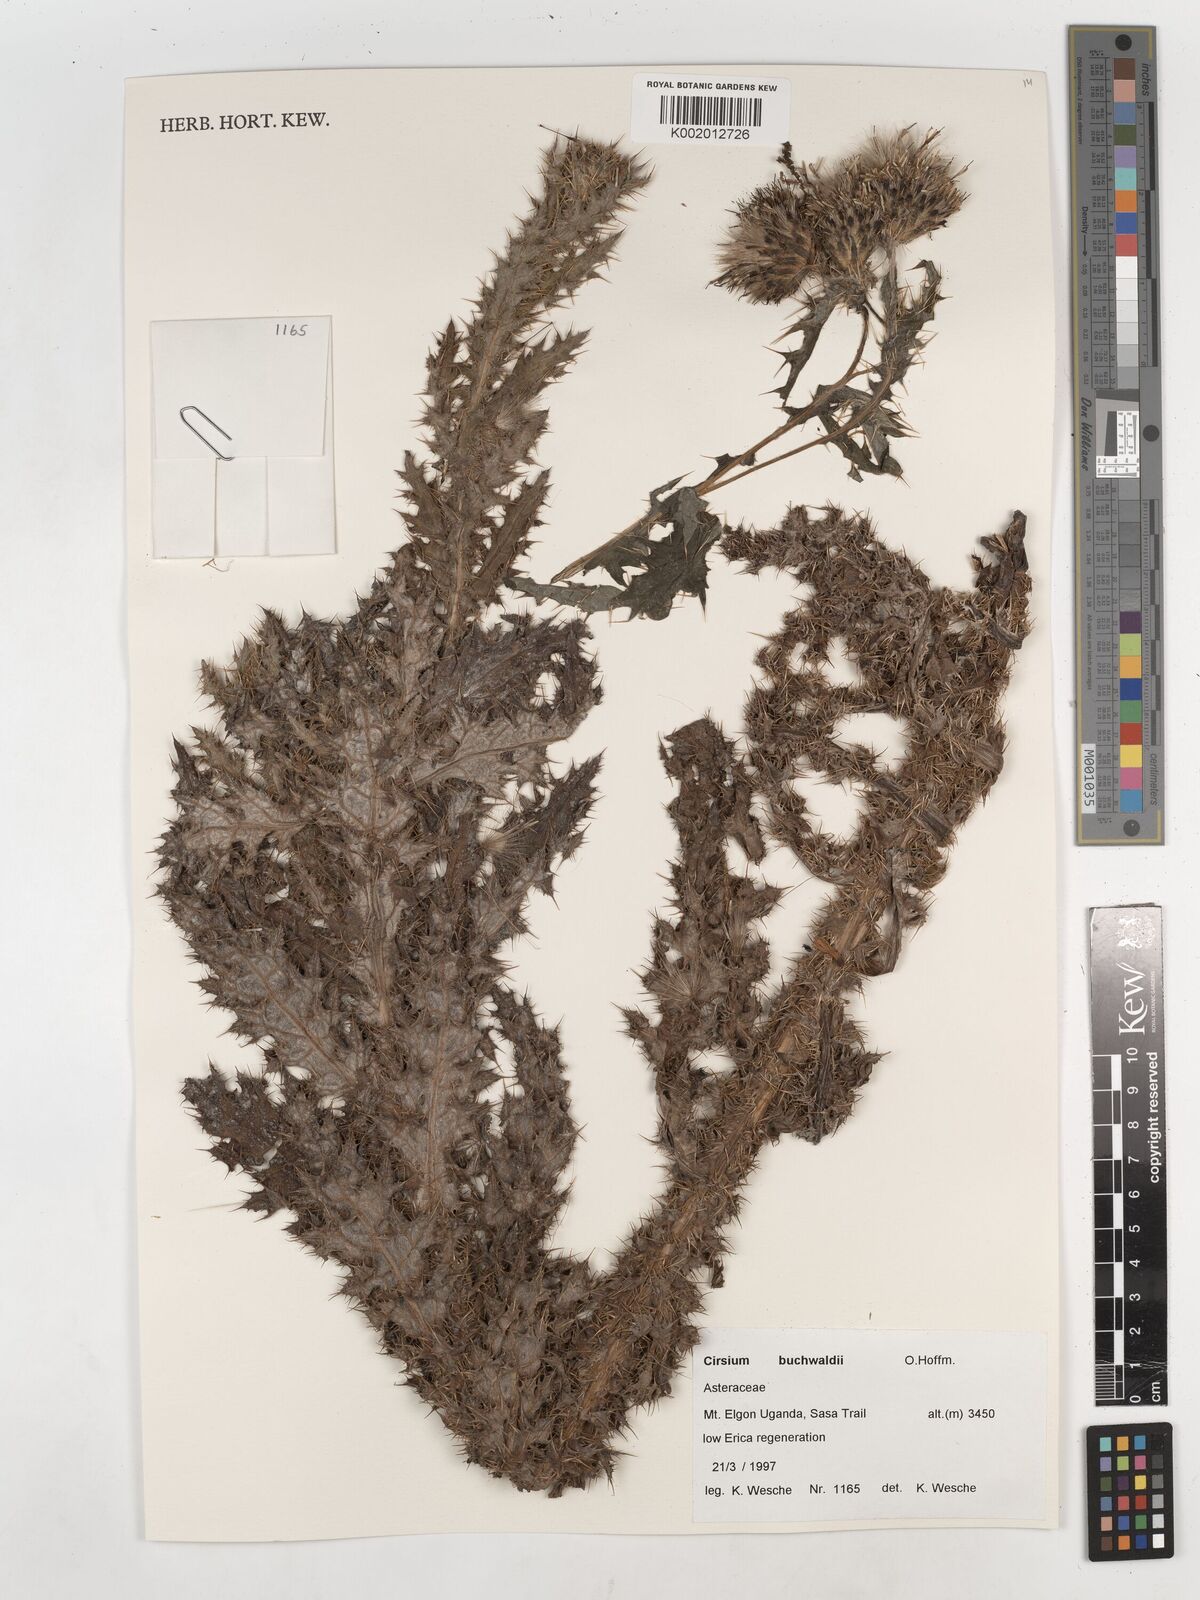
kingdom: Plantae
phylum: Tracheophyta
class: Magnoliopsida
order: Asterales
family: Asteraceae
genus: Cirsium
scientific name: Cirsium buchwaldii
